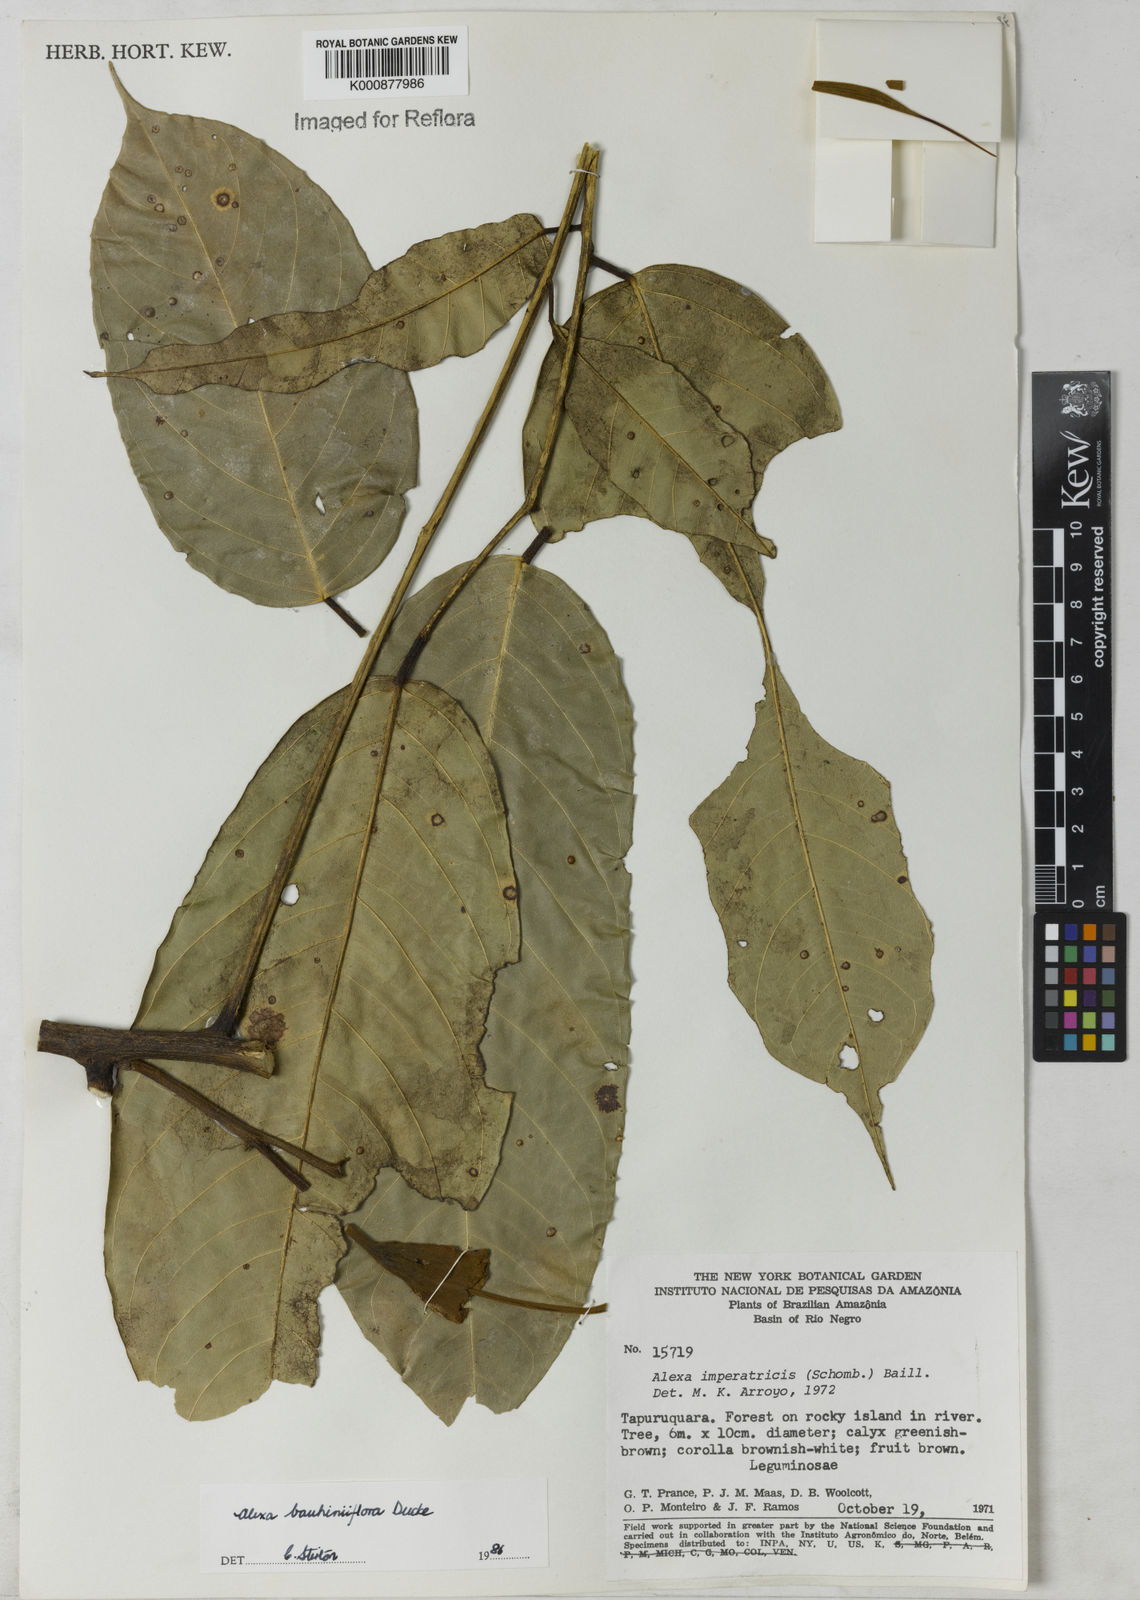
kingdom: Plantae
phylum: Tracheophyta
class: Magnoliopsida
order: Fabales
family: Fabaceae
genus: Alexa
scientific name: Alexa bauhiniiflora
